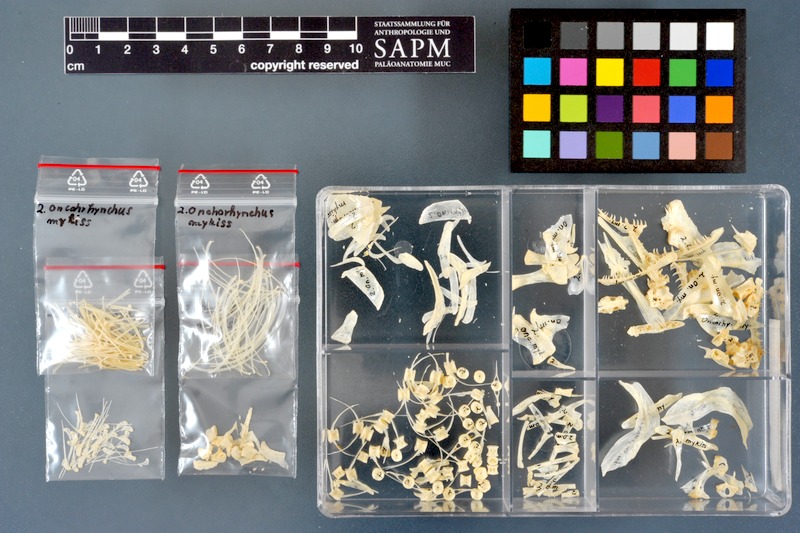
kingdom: Animalia
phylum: Chordata
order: Salmoniformes
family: Salmonidae
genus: Oncorhynchus
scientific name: Oncorhynchus mykiss
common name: Rainbow trout
